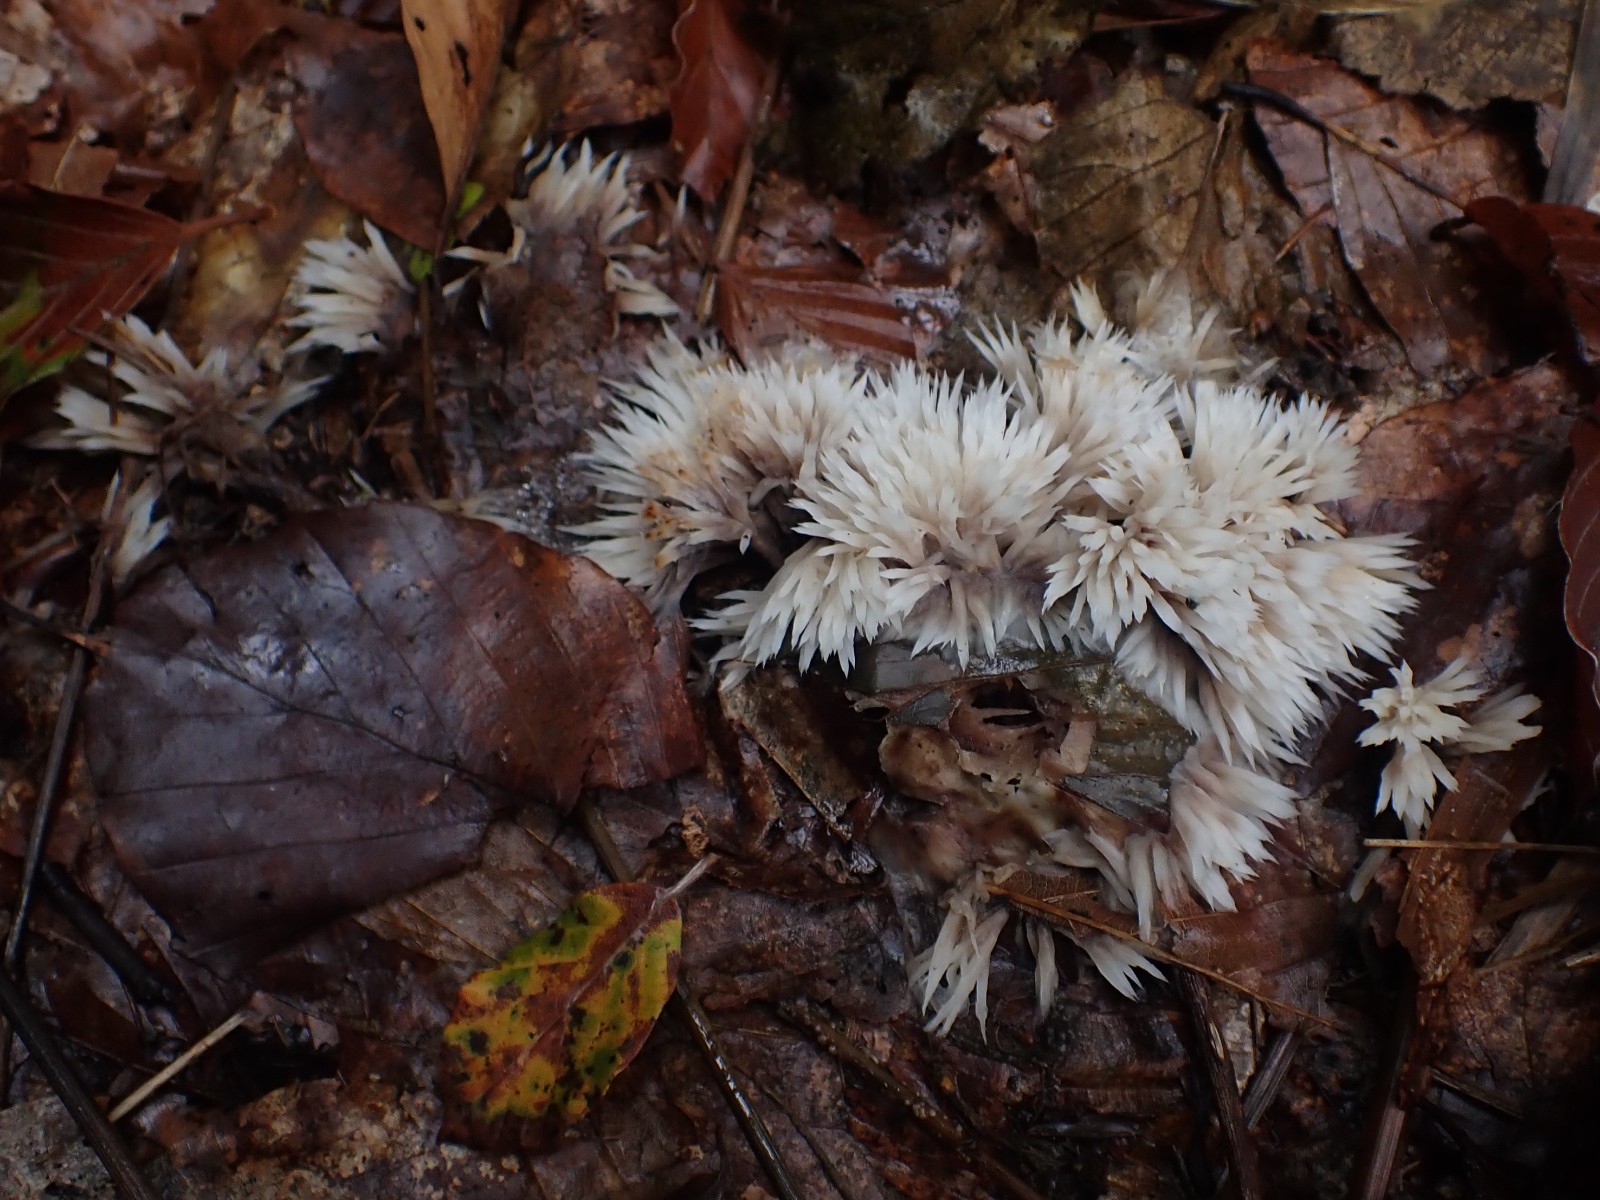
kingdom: Fungi
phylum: Basidiomycota
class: Agaricomycetes
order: Thelephorales
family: Thelephoraceae
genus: Thelephora
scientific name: Thelephora penicillata
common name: fladtrådt frynsesvamp
